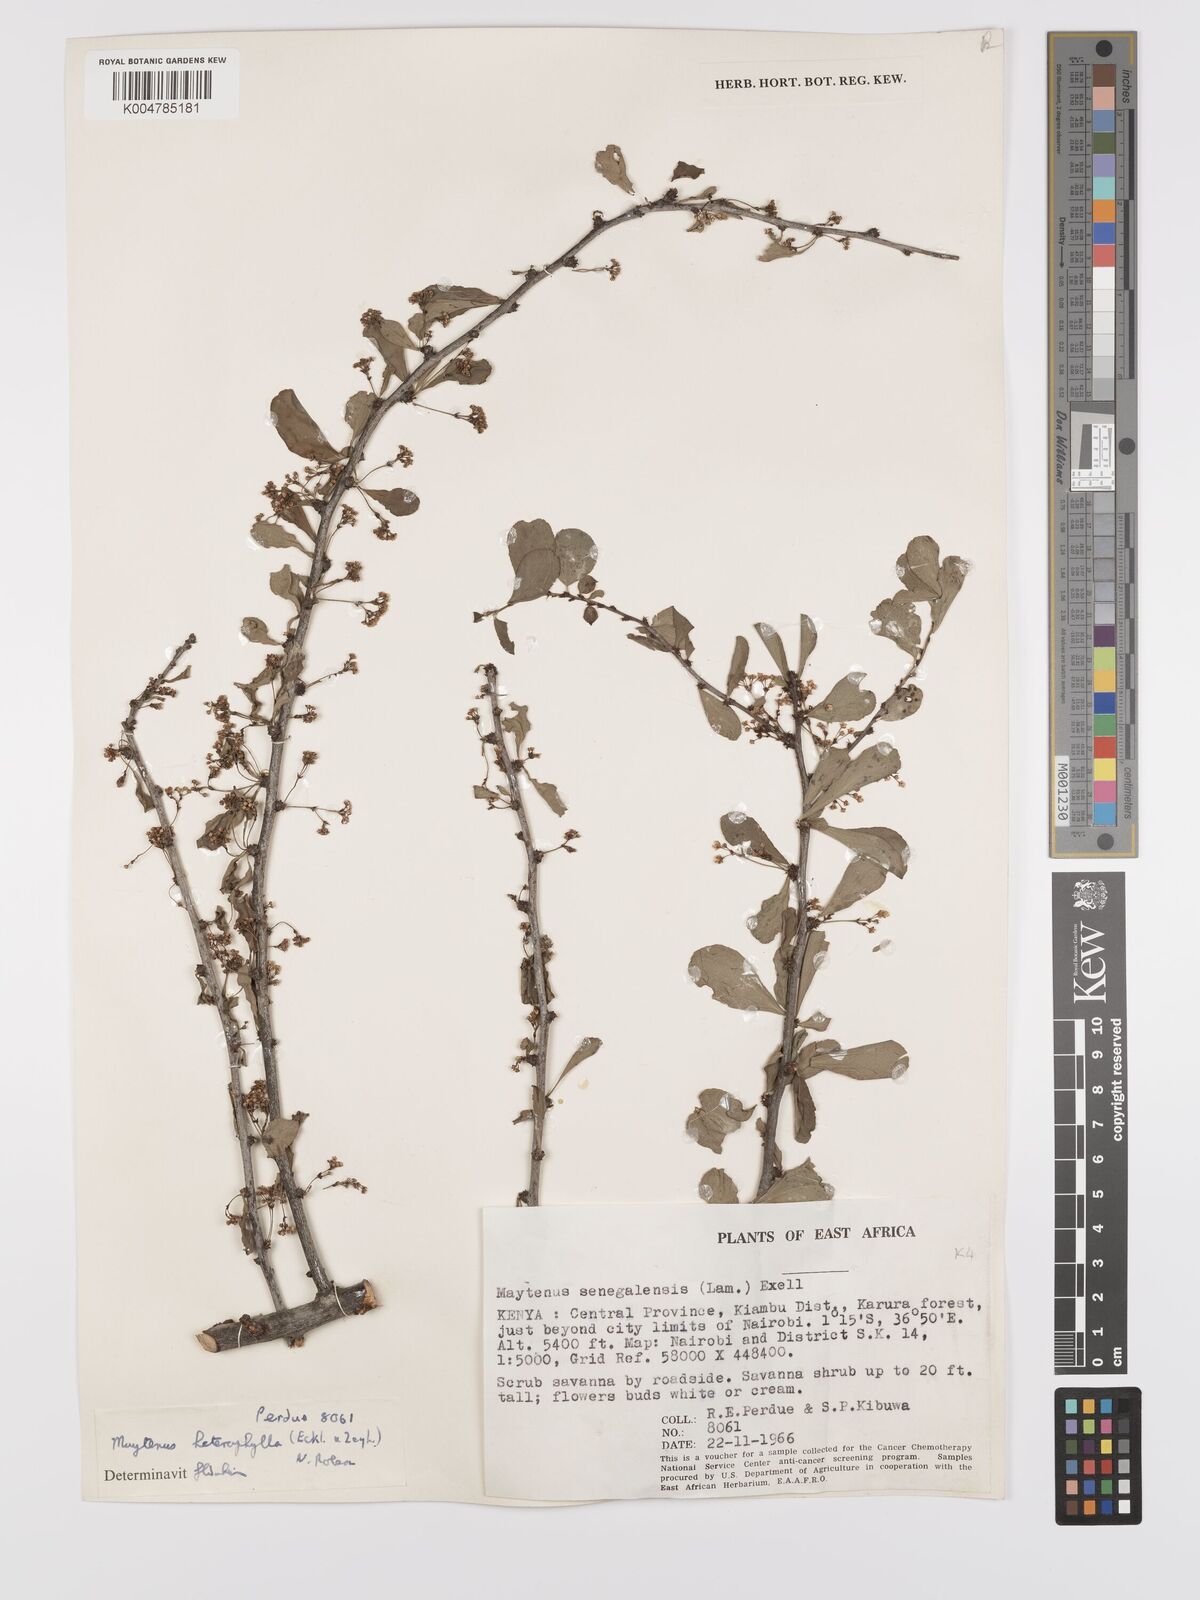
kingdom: Plantae
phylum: Tracheophyta
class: Magnoliopsida
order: Celastrales
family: Celastraceae
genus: Gymnosporia
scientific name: Gymnosporia heterophylla
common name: Angle-stem spikethorn
